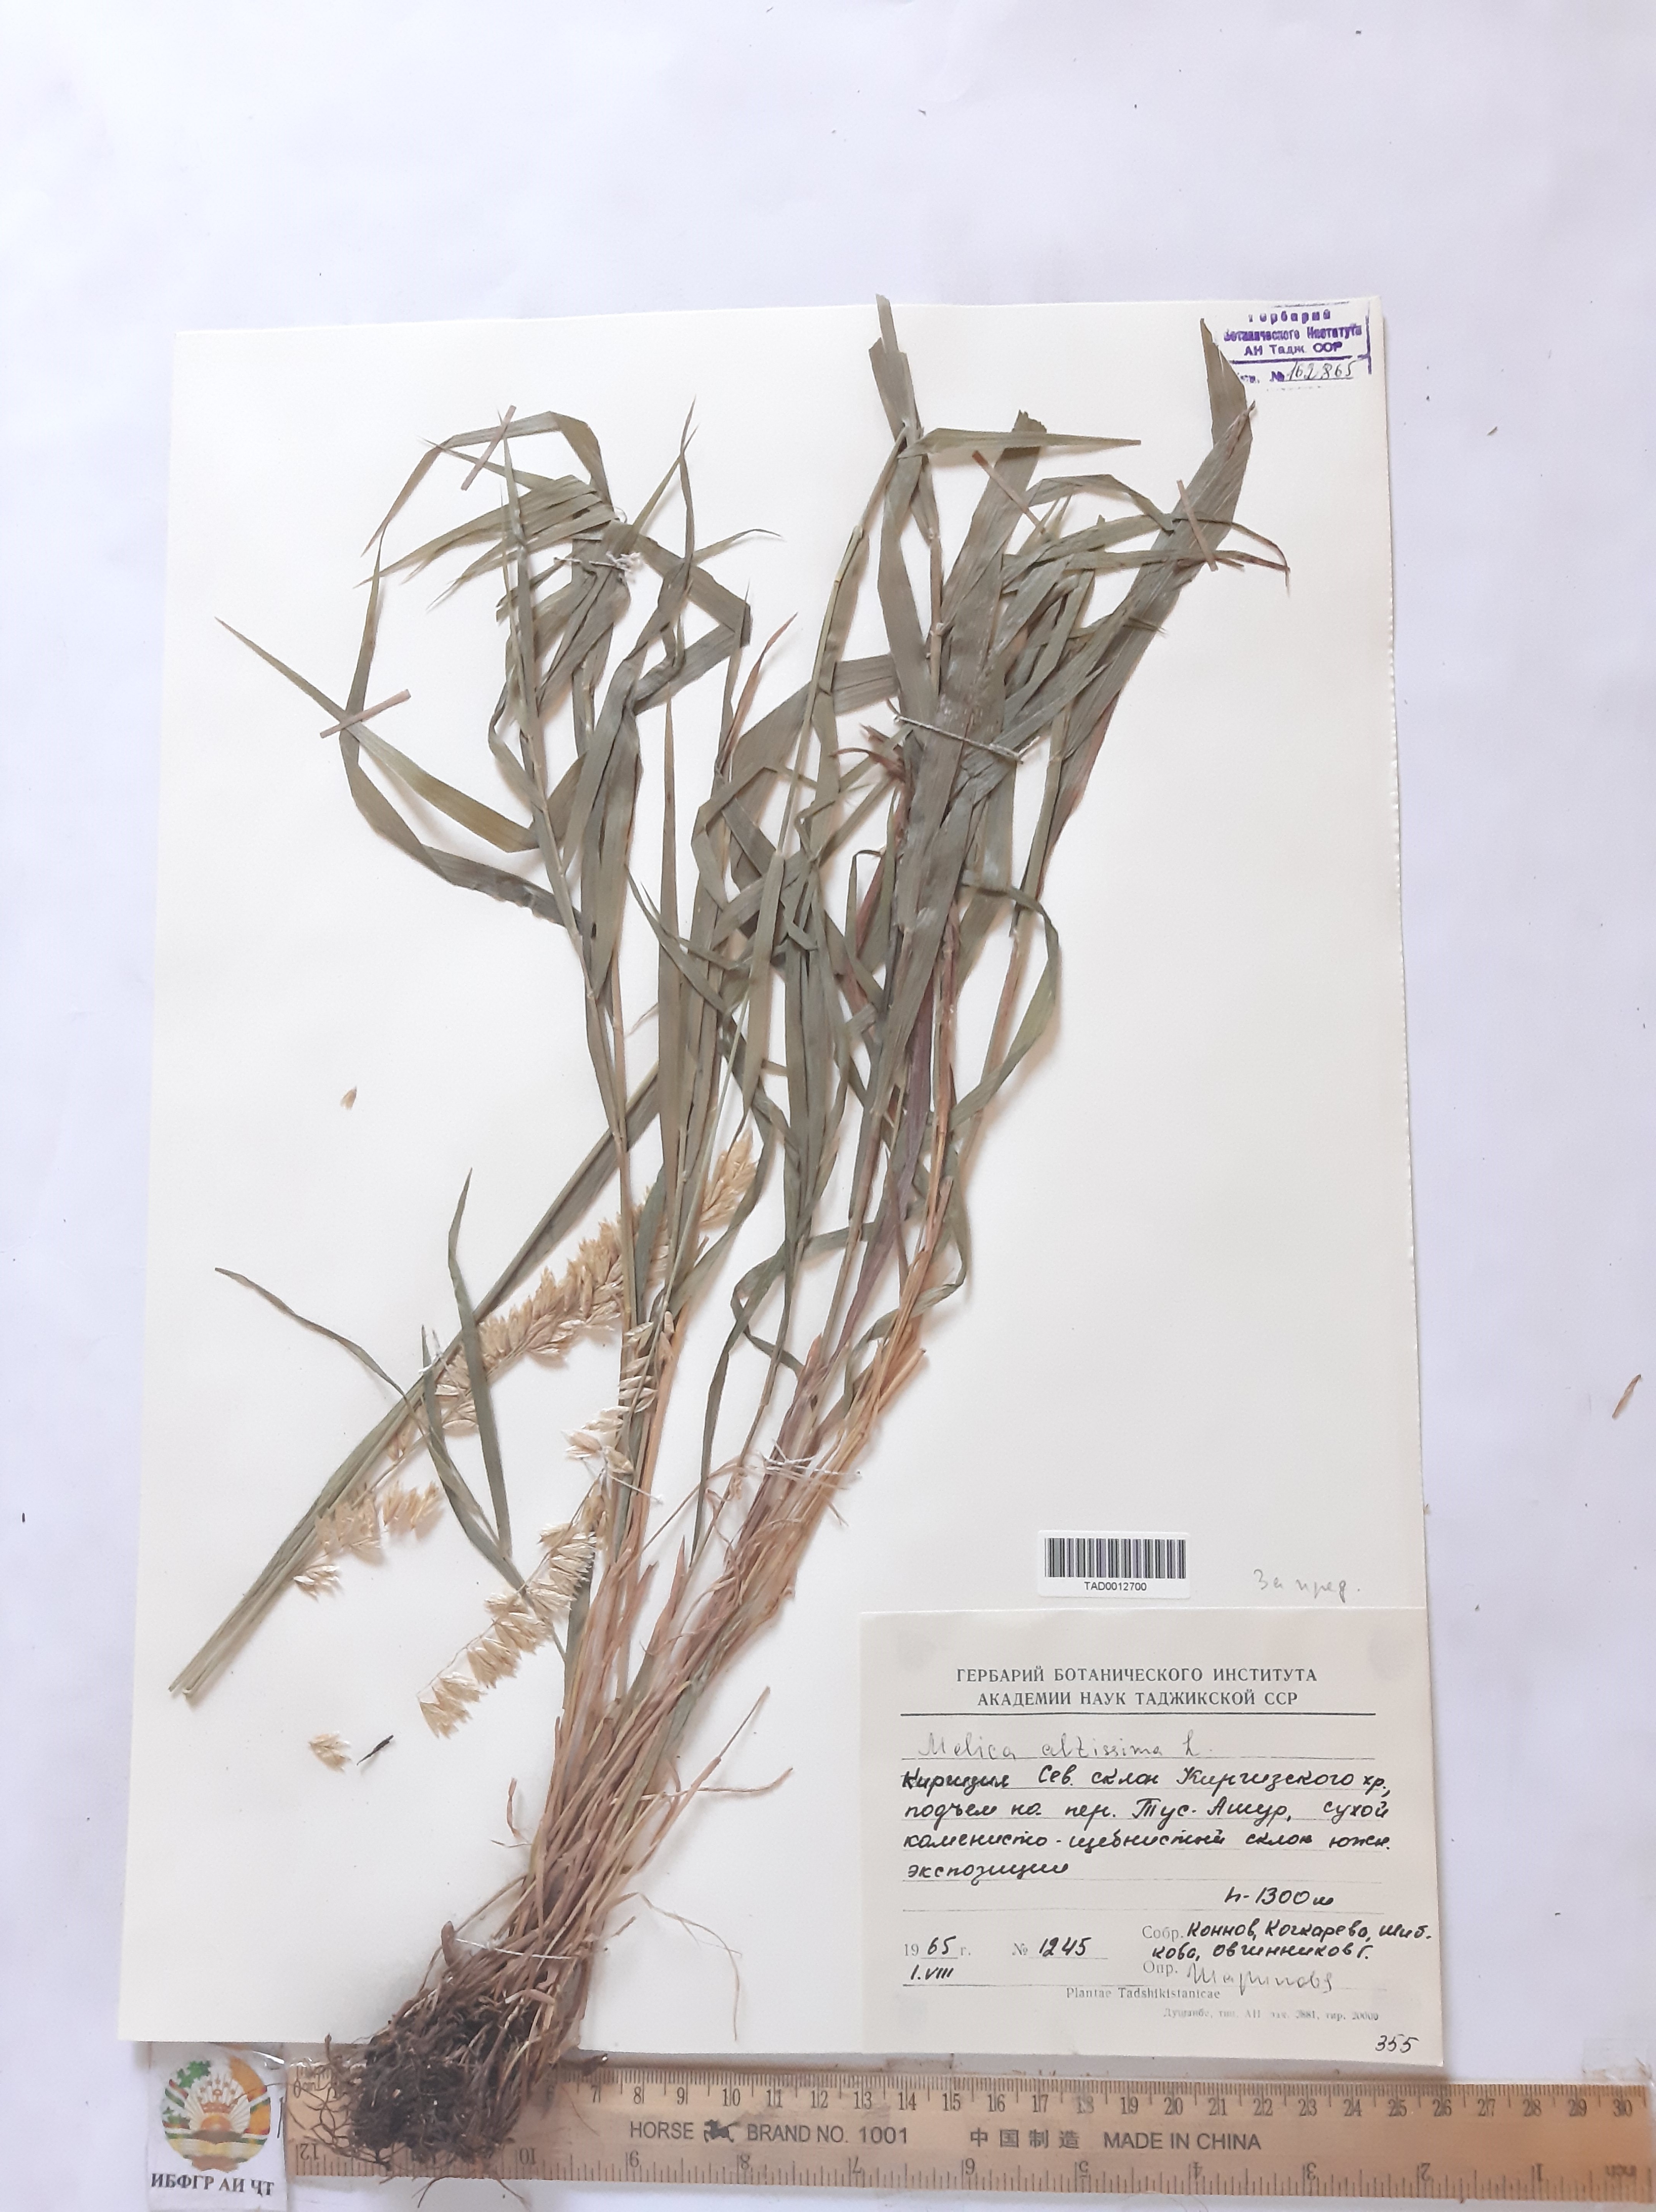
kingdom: Plantae
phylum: Tracheophyta
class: Liliopsida
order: Poales
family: Poaceae
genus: Melica
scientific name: Melica altissima
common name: Siberian melicgrass
